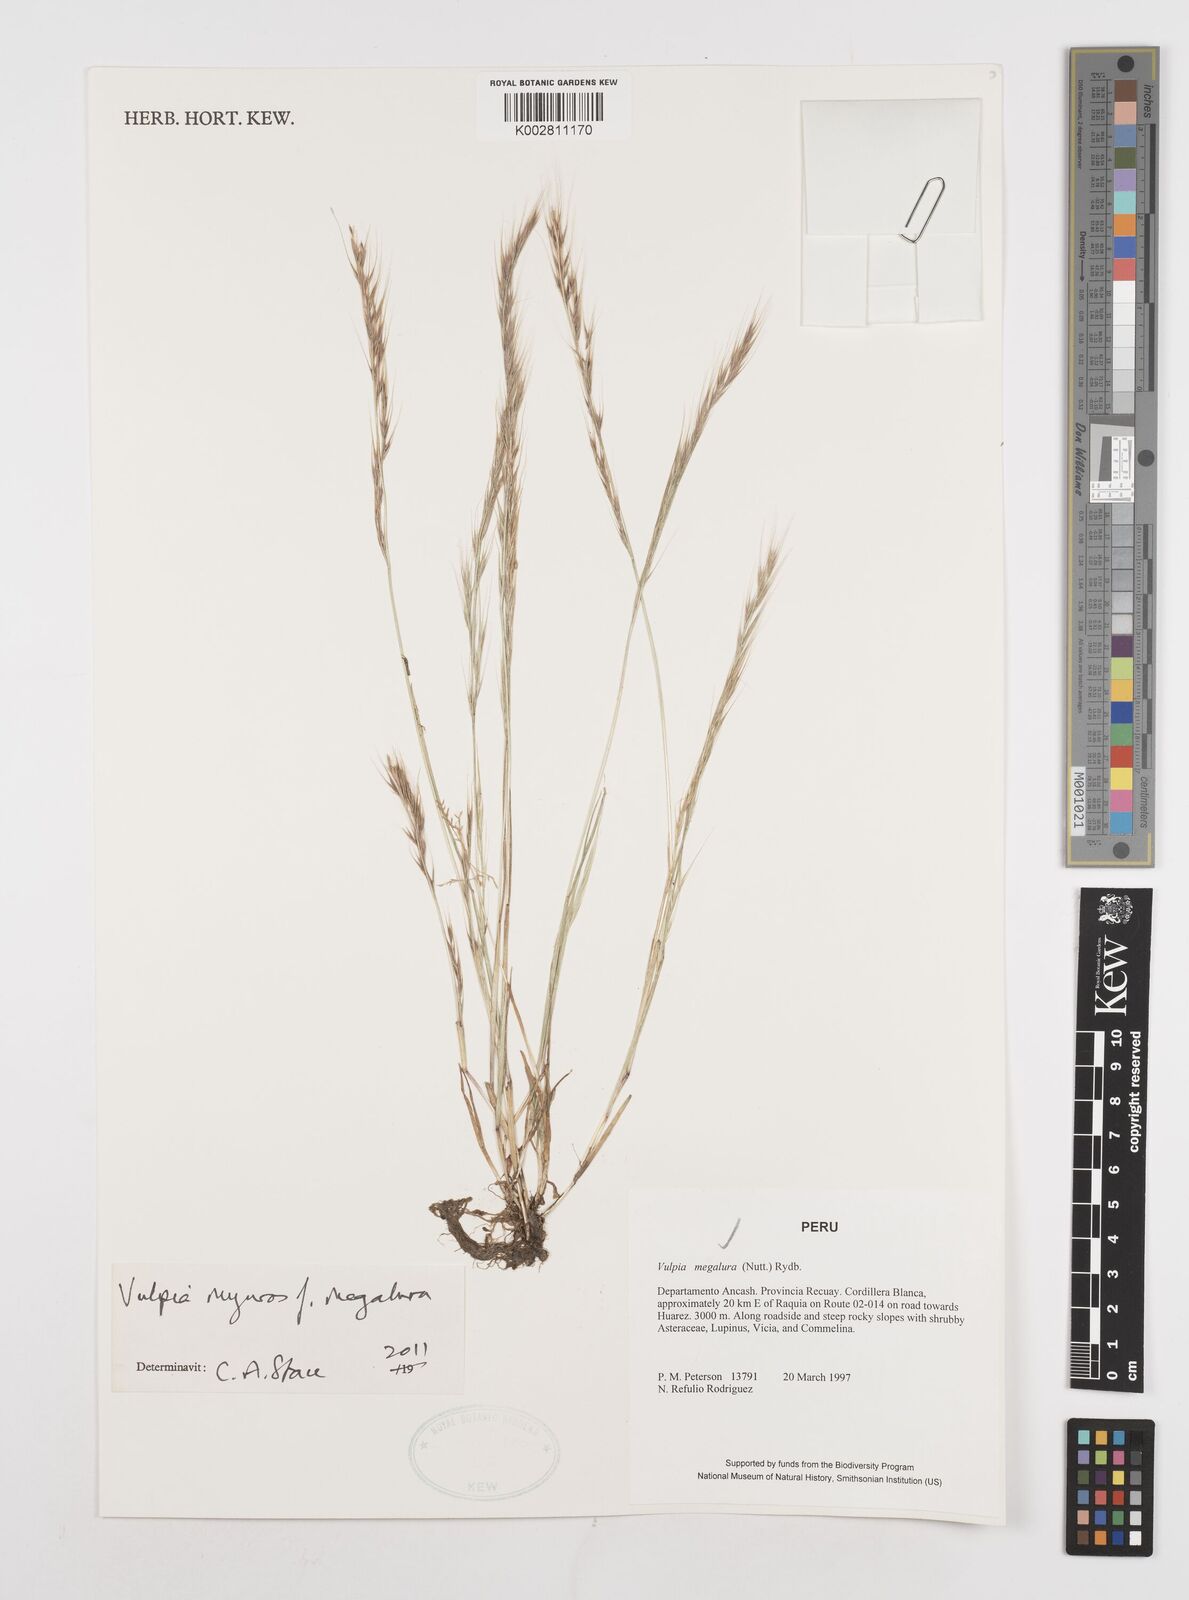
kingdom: Plantae
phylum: Tracheophyta
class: Liliopsida
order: Poales
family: Poaceae
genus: Festuca
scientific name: Festuca myuros
